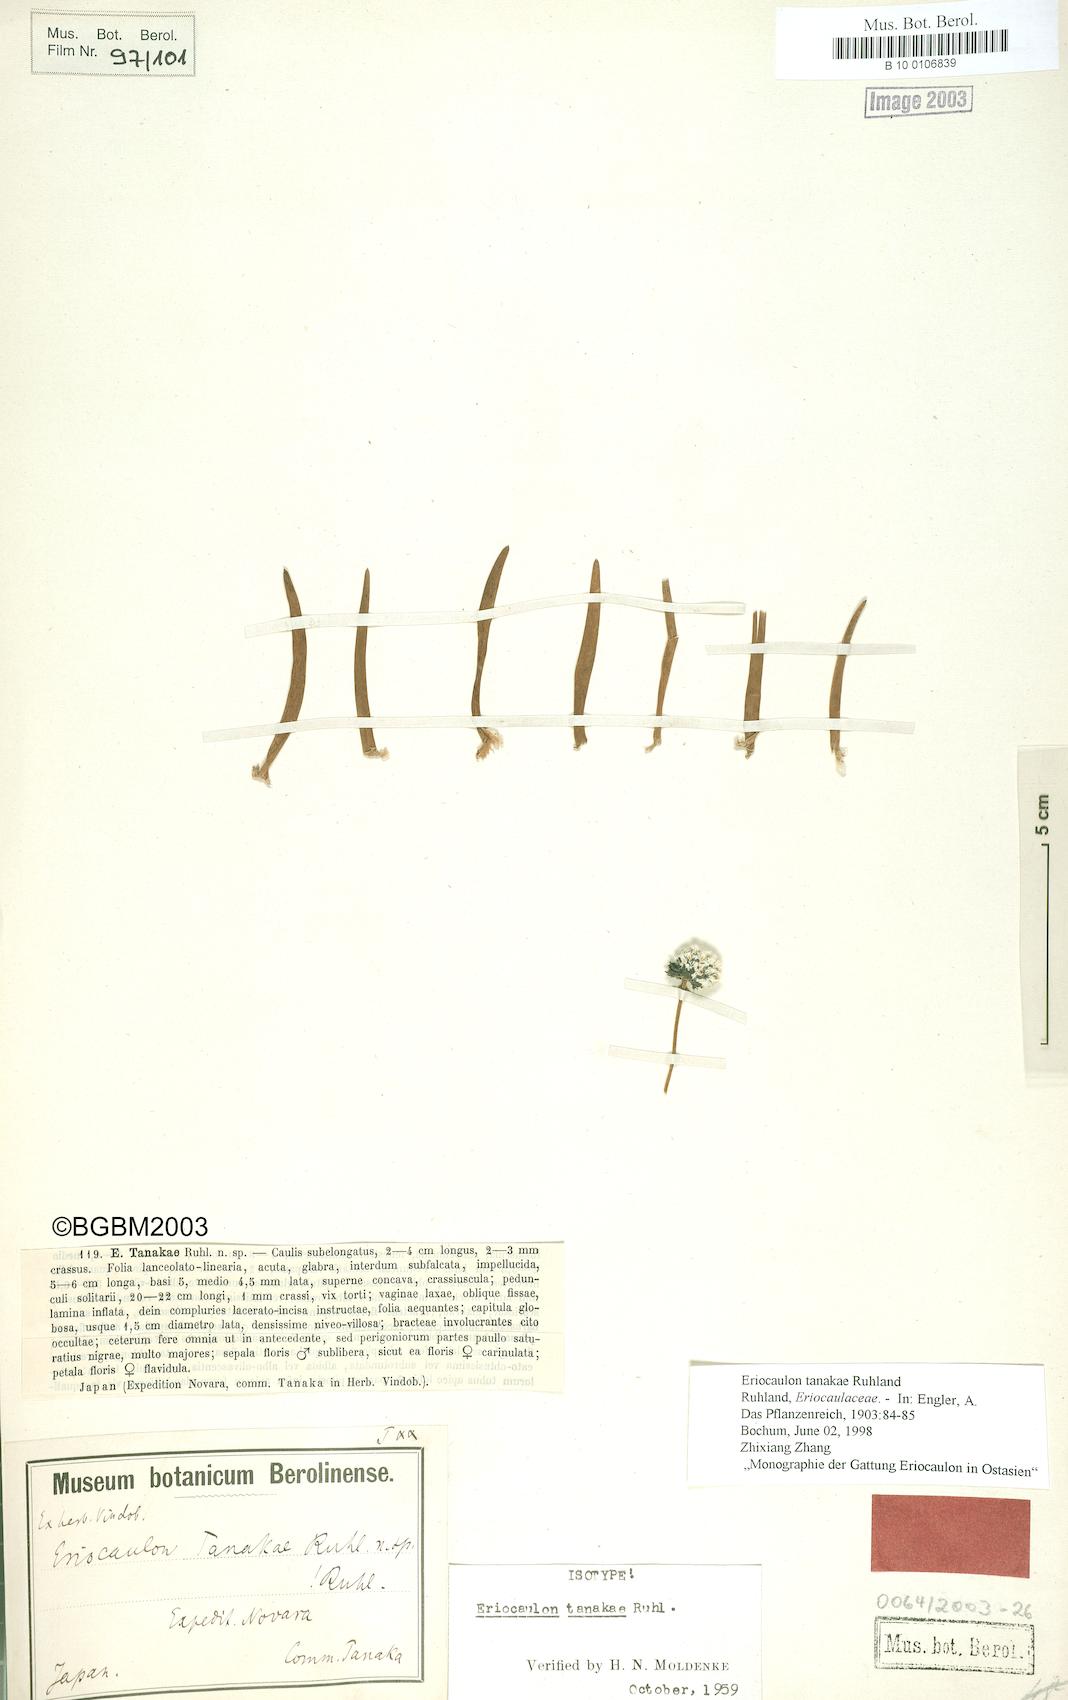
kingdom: Plantae
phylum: Tracheophyta
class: Liliopsida
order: Poales
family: Eriocaulaceae
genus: Eriocaulon
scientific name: Eriocaulon tanakae
